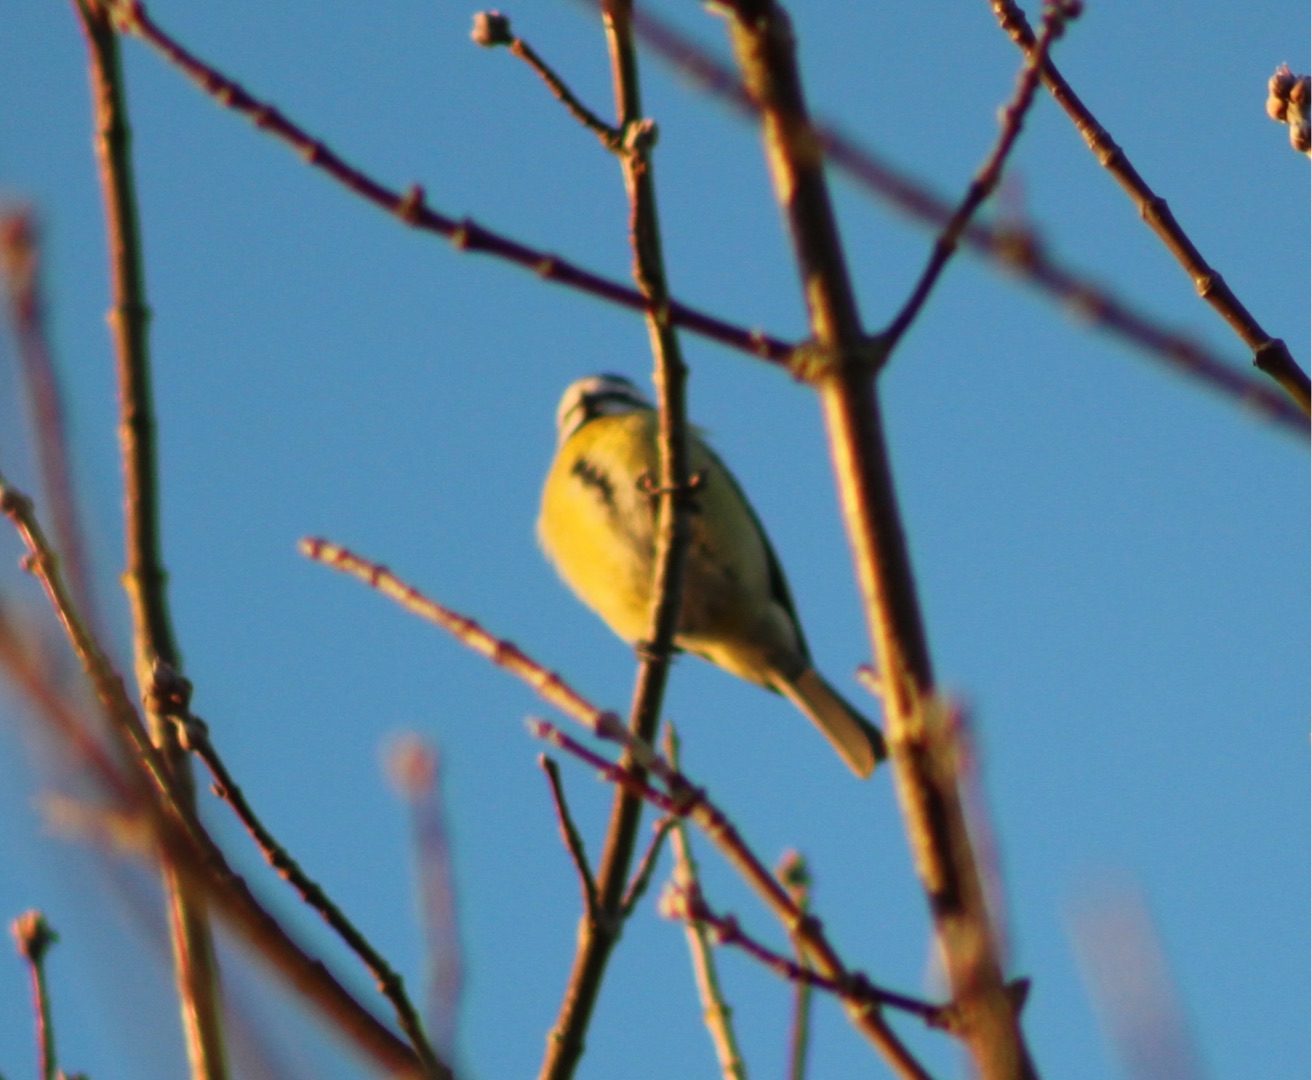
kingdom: Animalia
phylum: Chordata
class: Aves
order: Passeriformes
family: Paridae
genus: Cyanistes
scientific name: Cyanistes caeruleus
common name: Blåmejse
